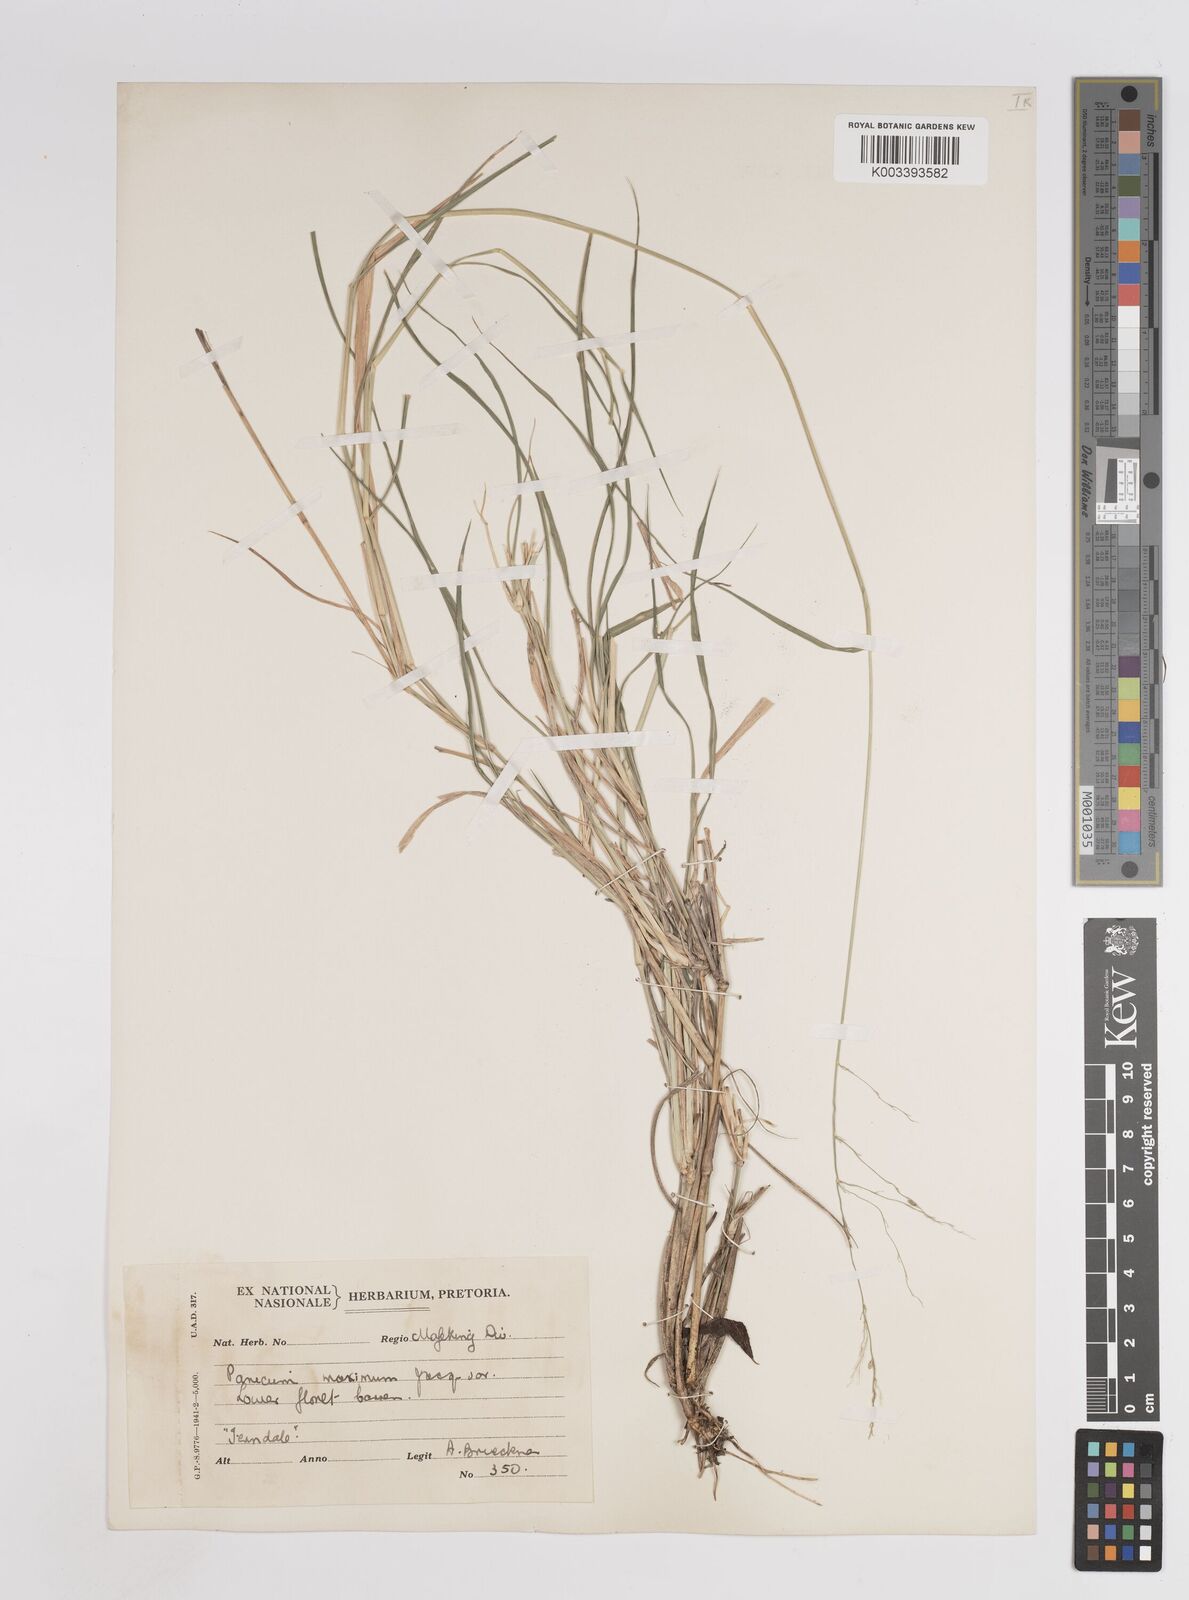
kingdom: Plantae
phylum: Tracheophyta
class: Liliopsida
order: Poales
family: Poaceae
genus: Megathyrsus
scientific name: Megathyrsus maximus
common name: Guineagrass
